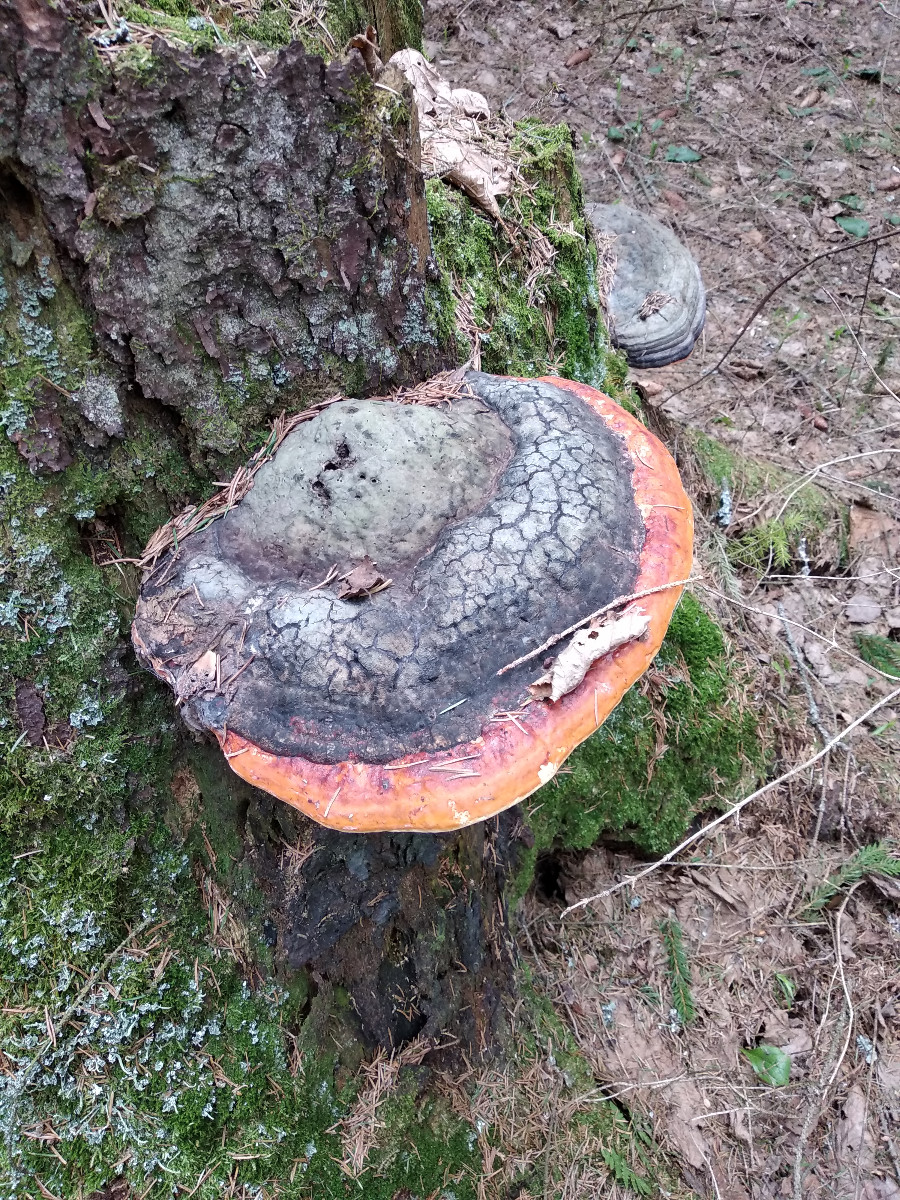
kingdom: Fungi
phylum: Basidiomycota
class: Agaricomycetes
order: Polyporales
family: Fomitopsidaceae
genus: Fomitopsis
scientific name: Fomitopsis pinicola
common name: randbæltet hovporesvamp
